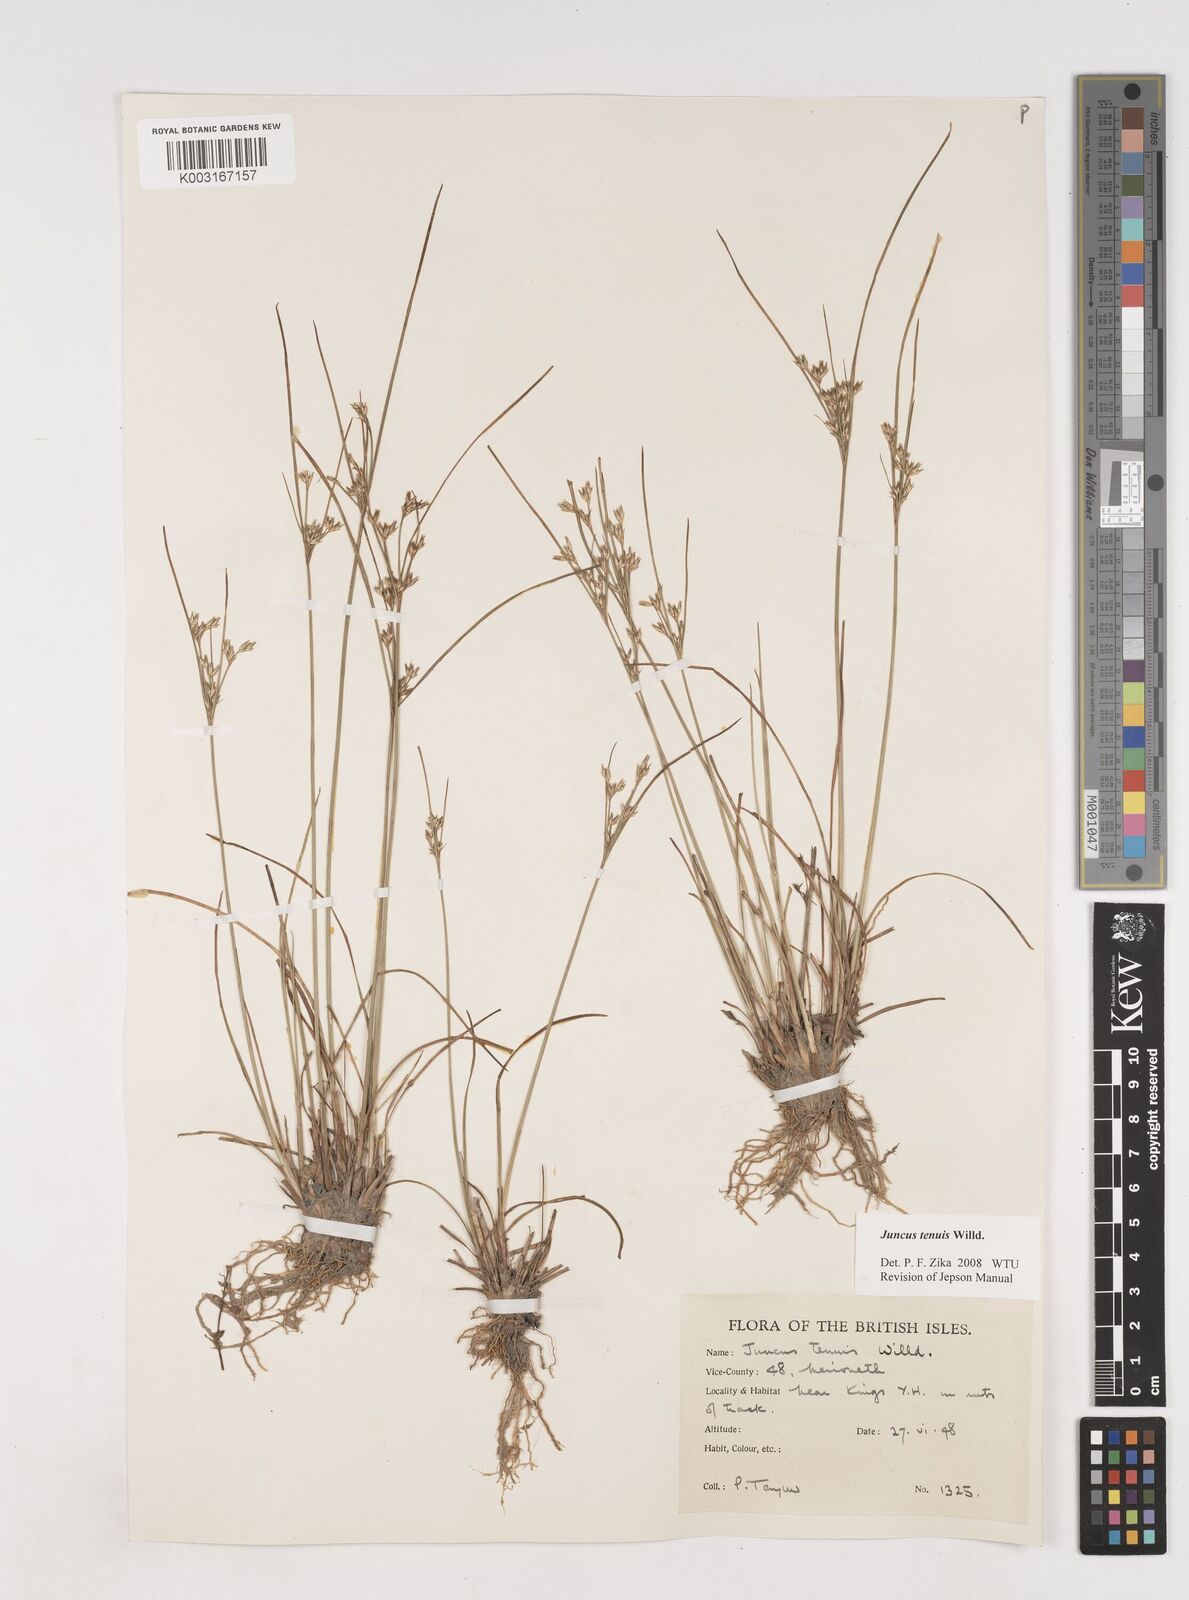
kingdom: Plantae
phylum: Tracheophyta
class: Liliopsida
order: Poales
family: Juncaceae
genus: Juncus
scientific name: Juncus tenuis
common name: Slender rush
